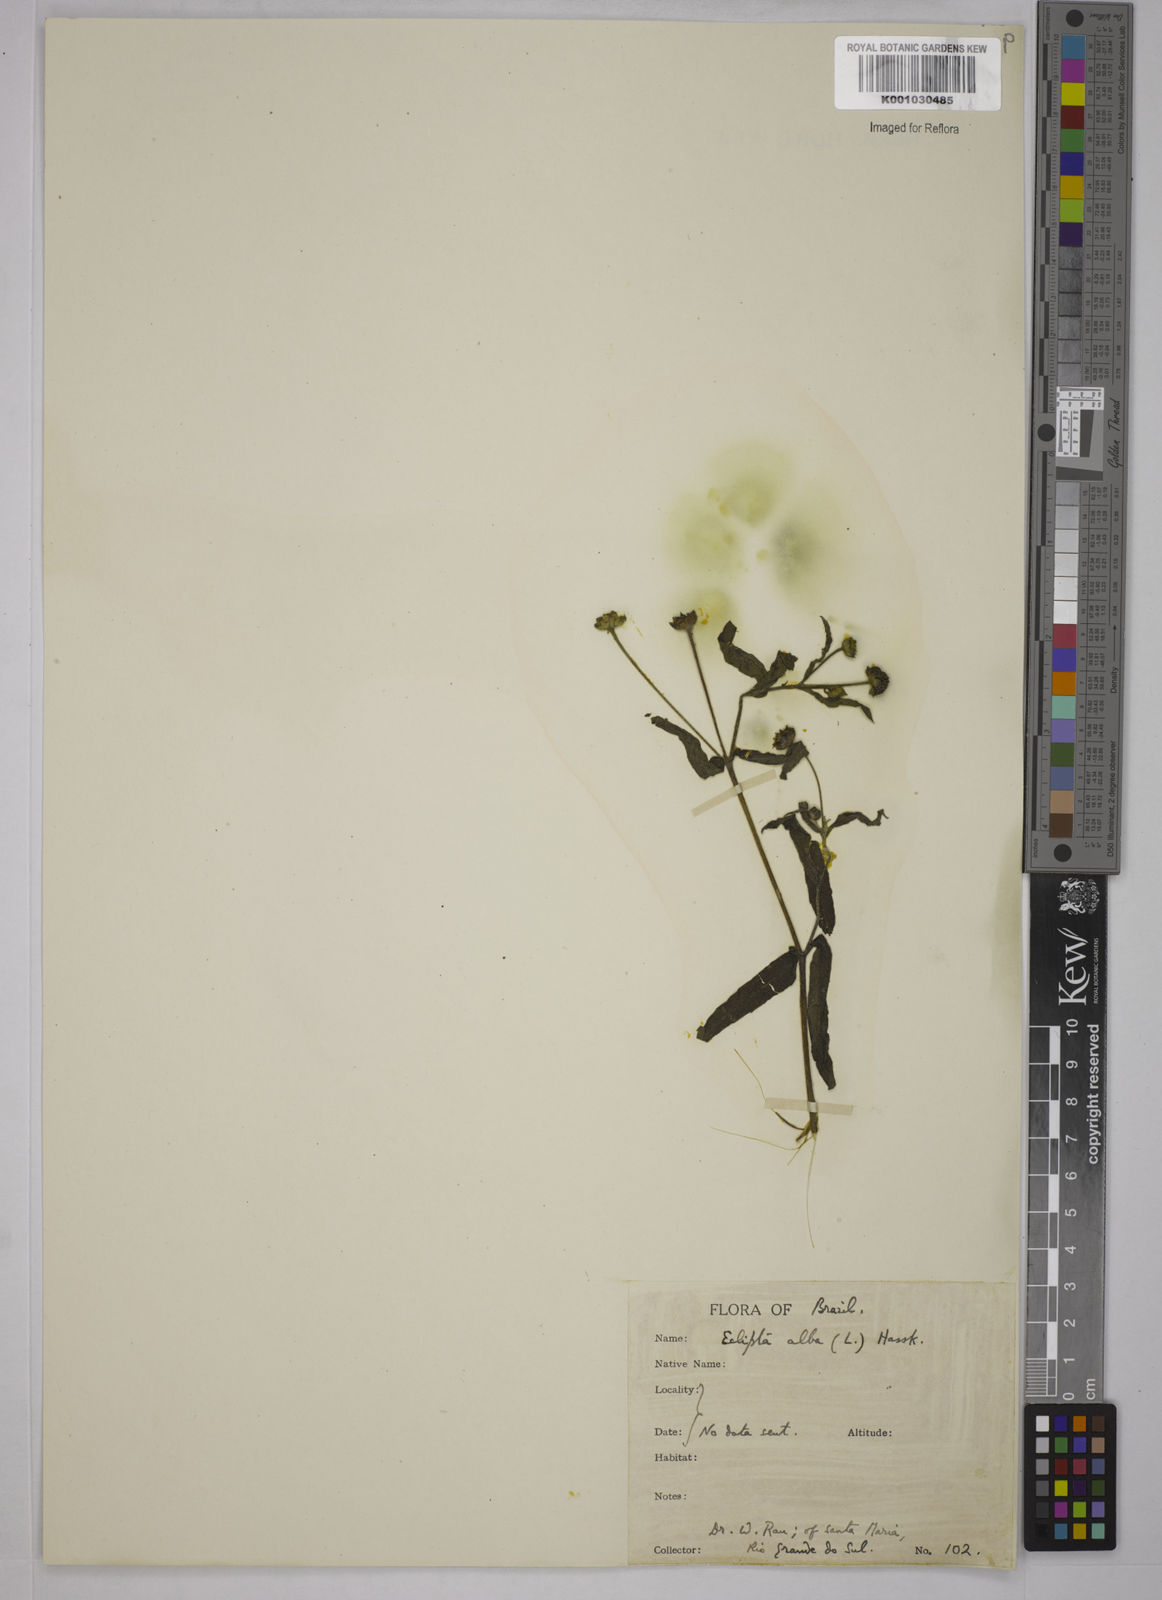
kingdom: Plantae
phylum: Tracheophyta
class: Magnoliopsida
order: Asterales
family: Asteraceae
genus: Eclipta
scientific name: Eclipta prostrata
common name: False daisy
